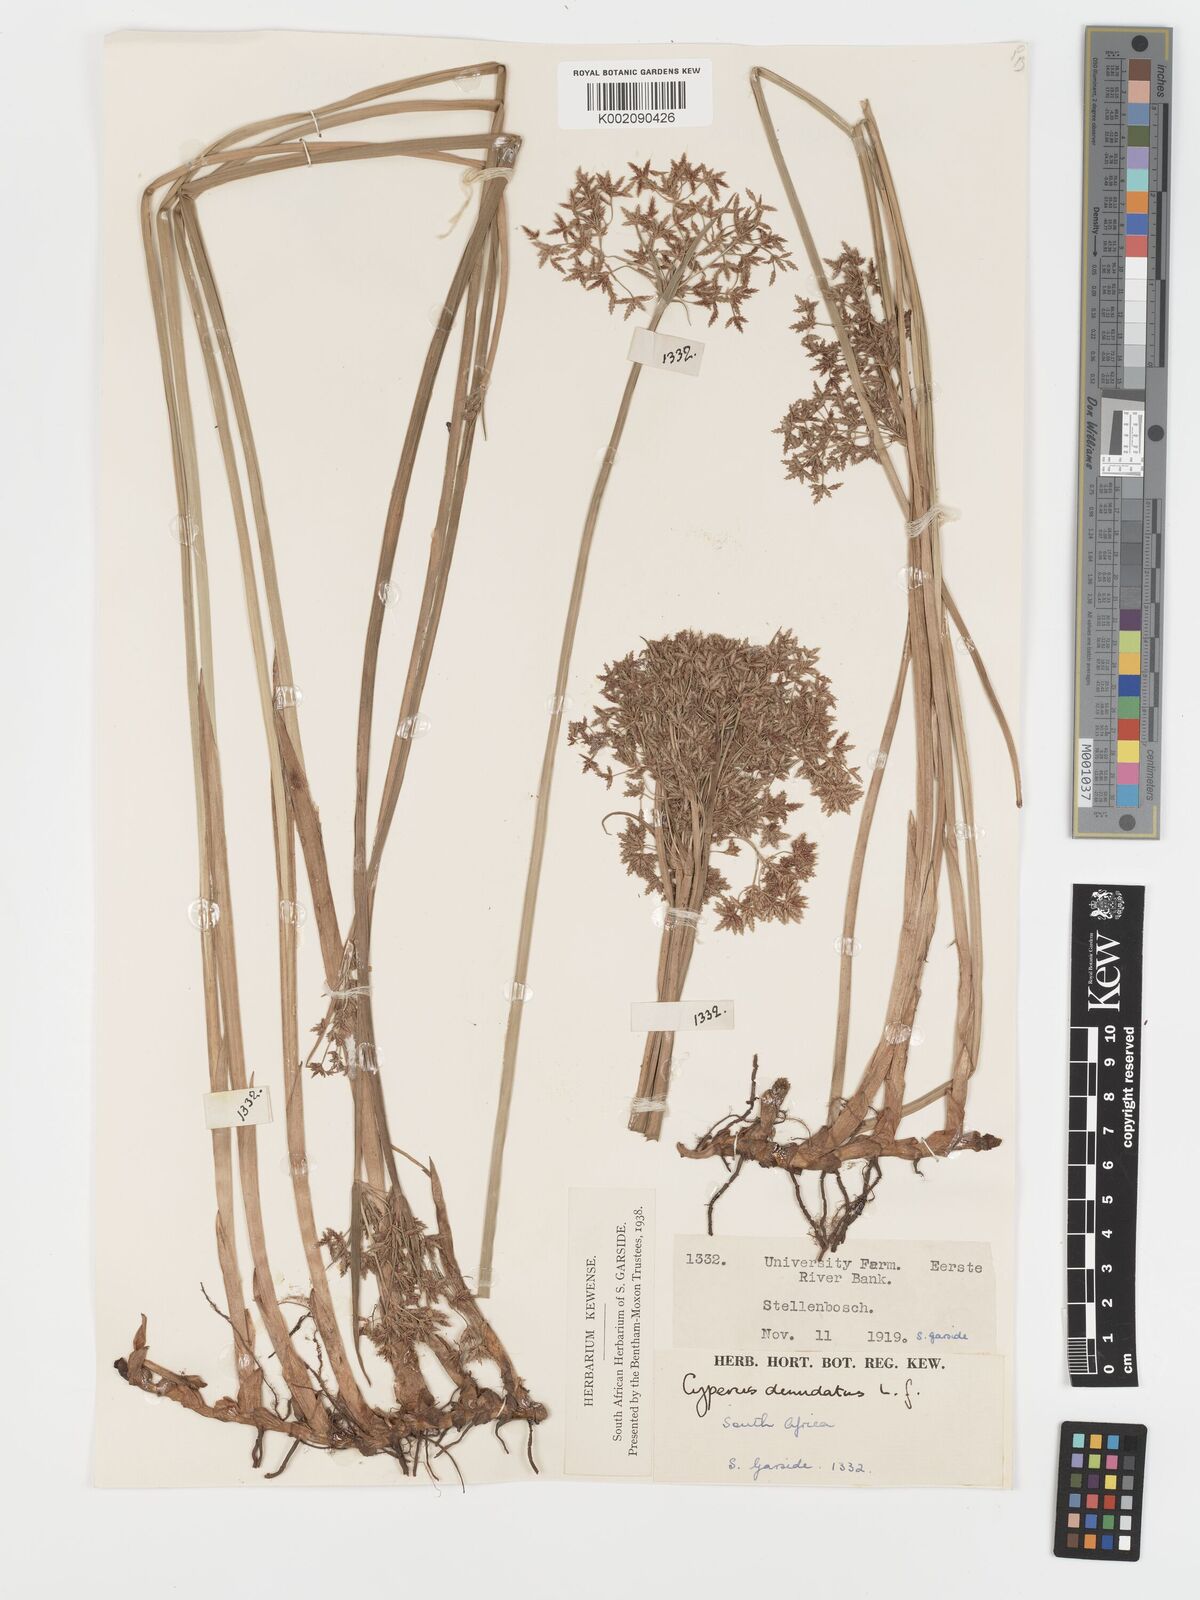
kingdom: Plantae
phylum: Tracheophyta
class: Liliopsida
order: Poales
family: Cyperaceae
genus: Cyperus
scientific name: Cyperus denudatus
